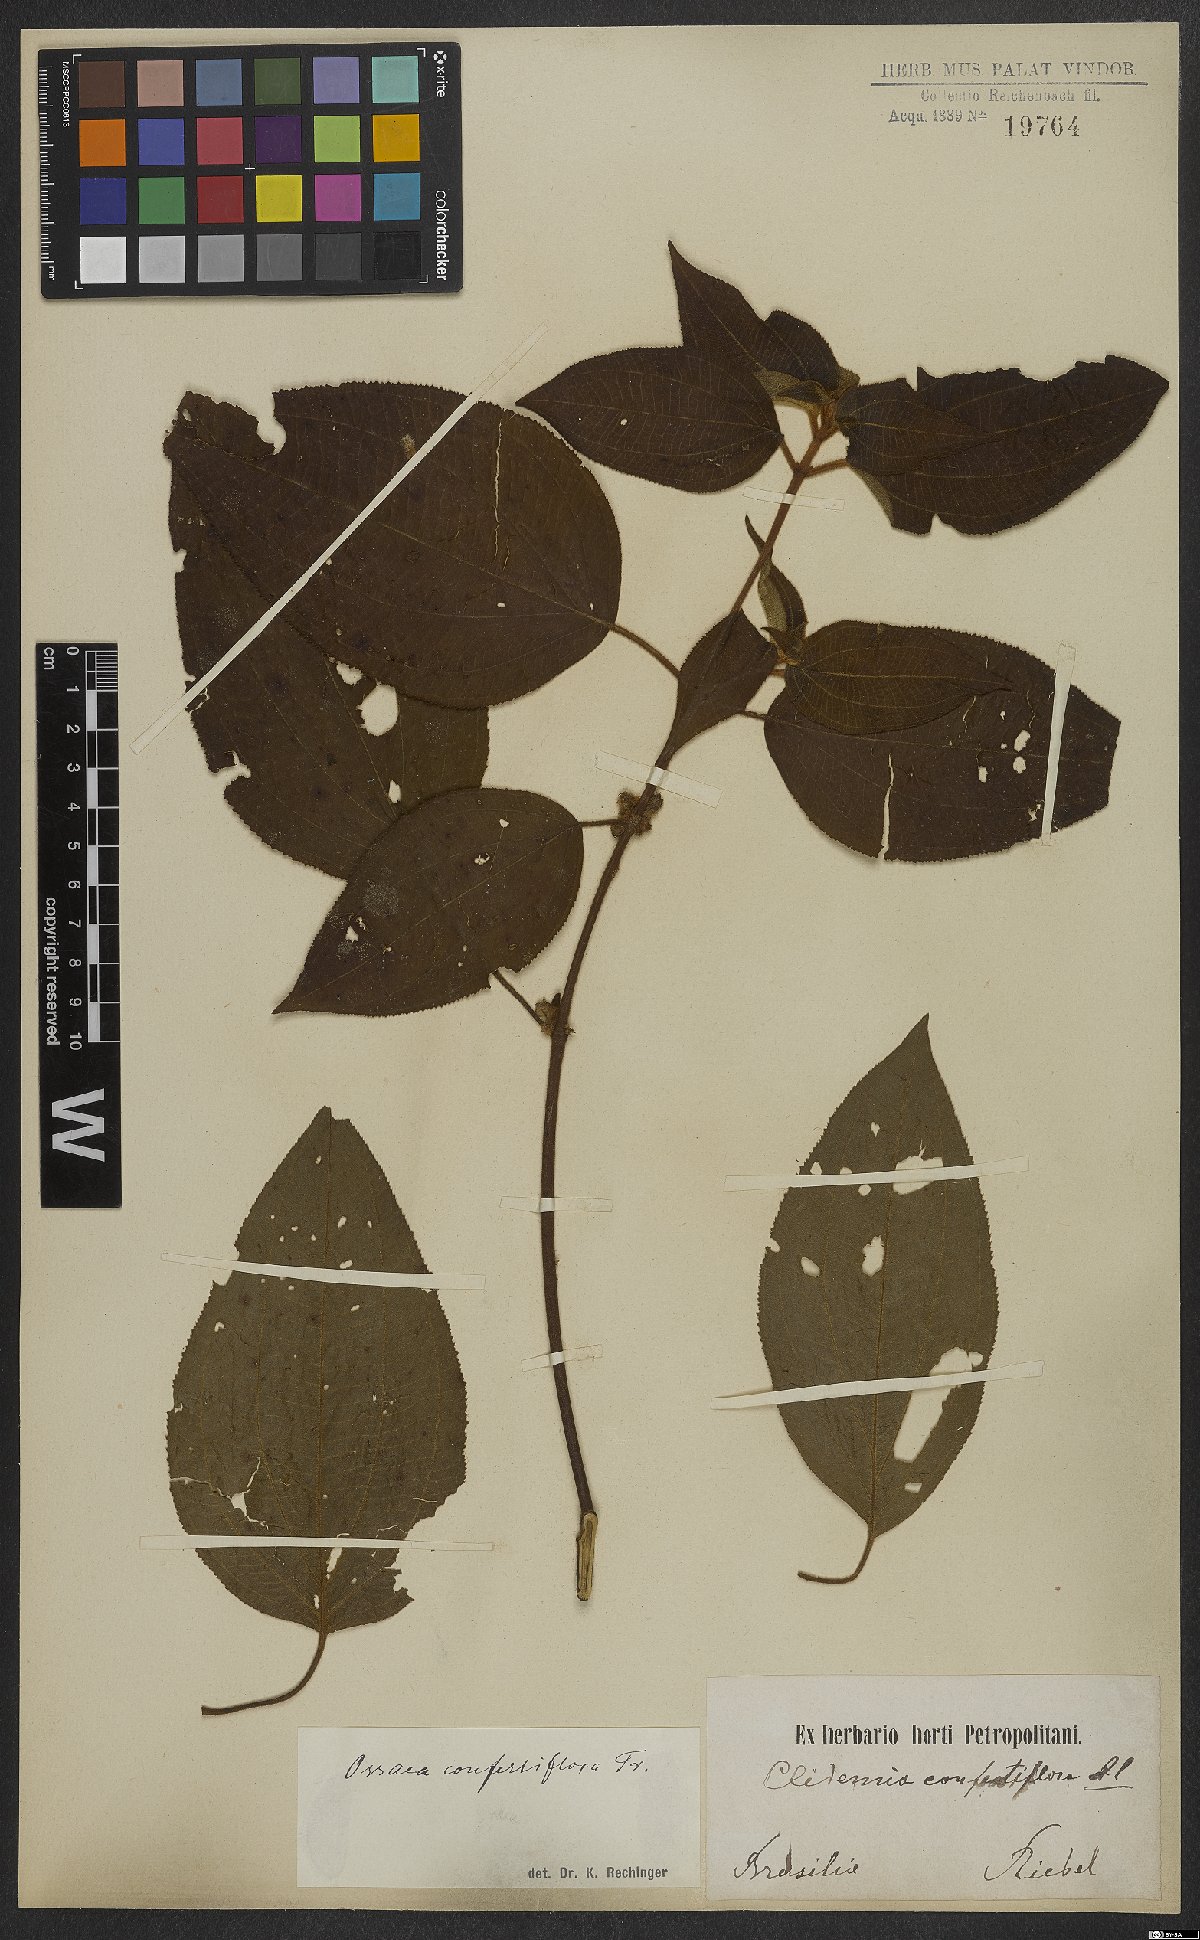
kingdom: Plantae
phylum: Tracheophyta
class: Magnoliopsida
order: Myrtales
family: Melastomataceae
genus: Miconia
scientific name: Miconia rubella
